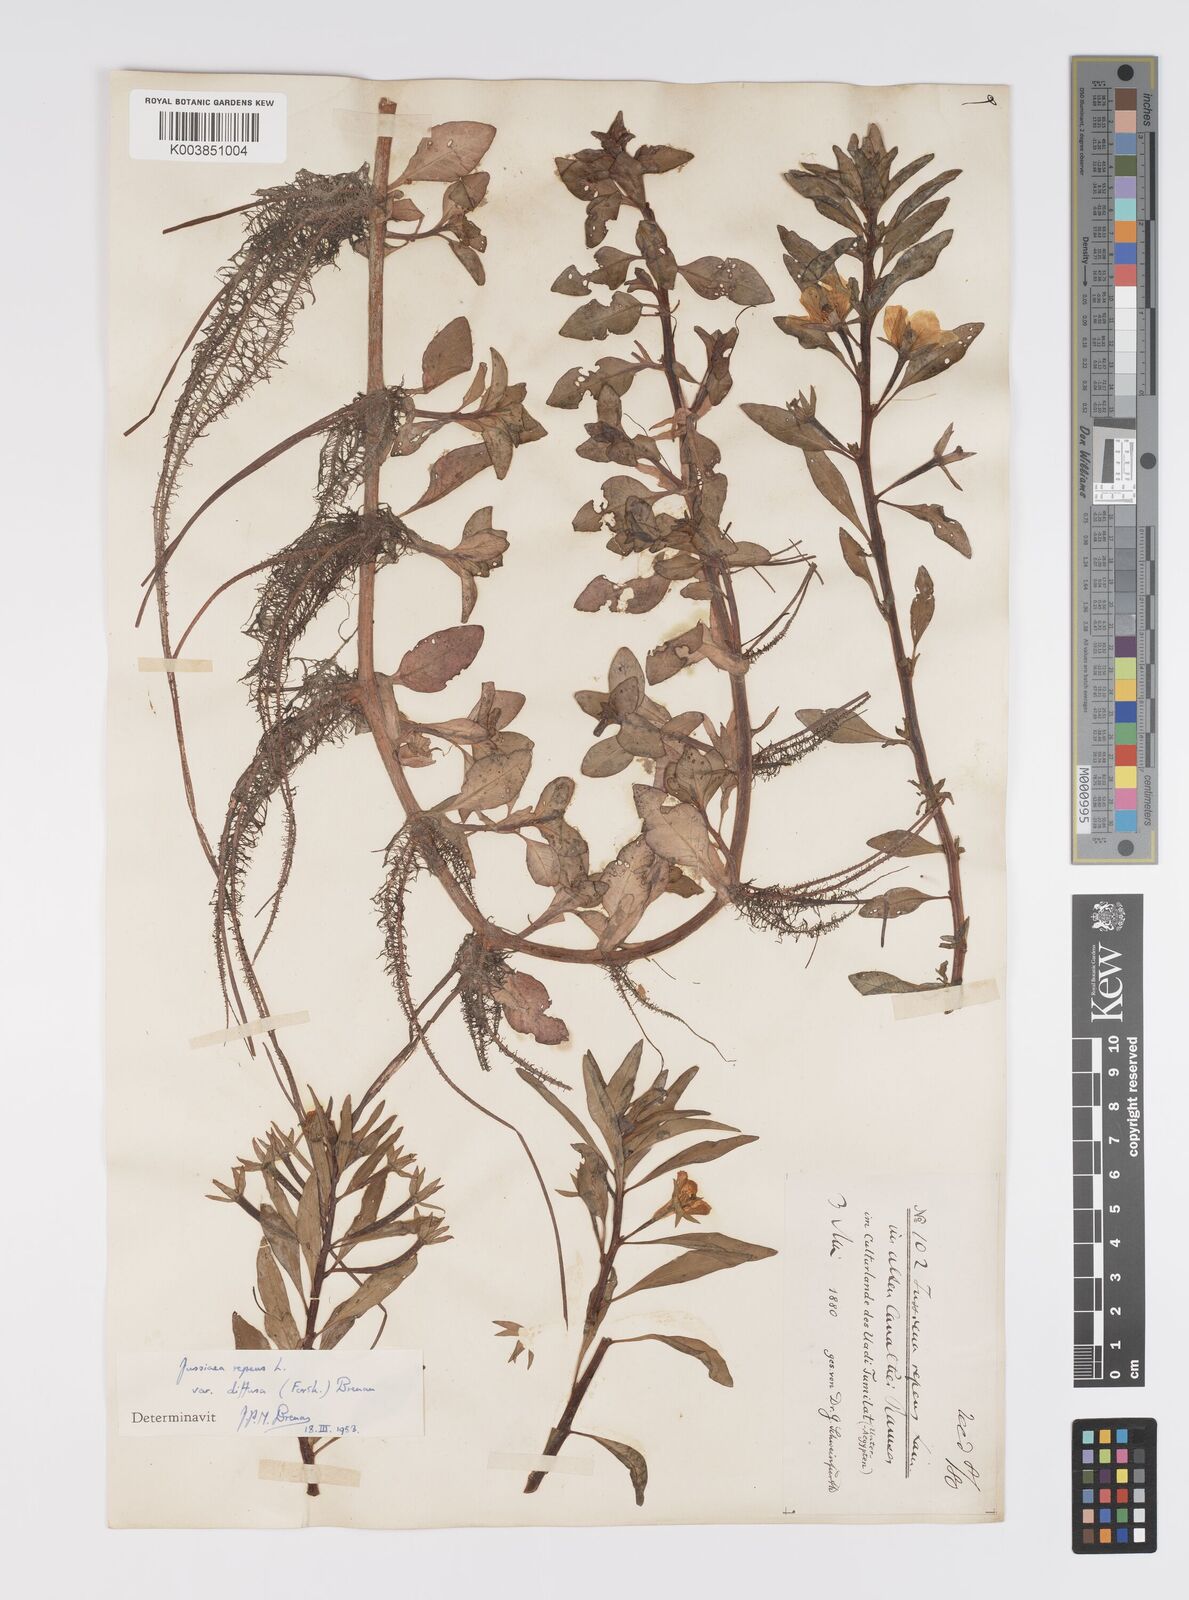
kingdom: Plantae
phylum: Tracheophyta
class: Magnoliopsida
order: Myrtales
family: Onagraceae
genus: Ludwigia
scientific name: Ludwigia adscendens
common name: Creeping water primrose
